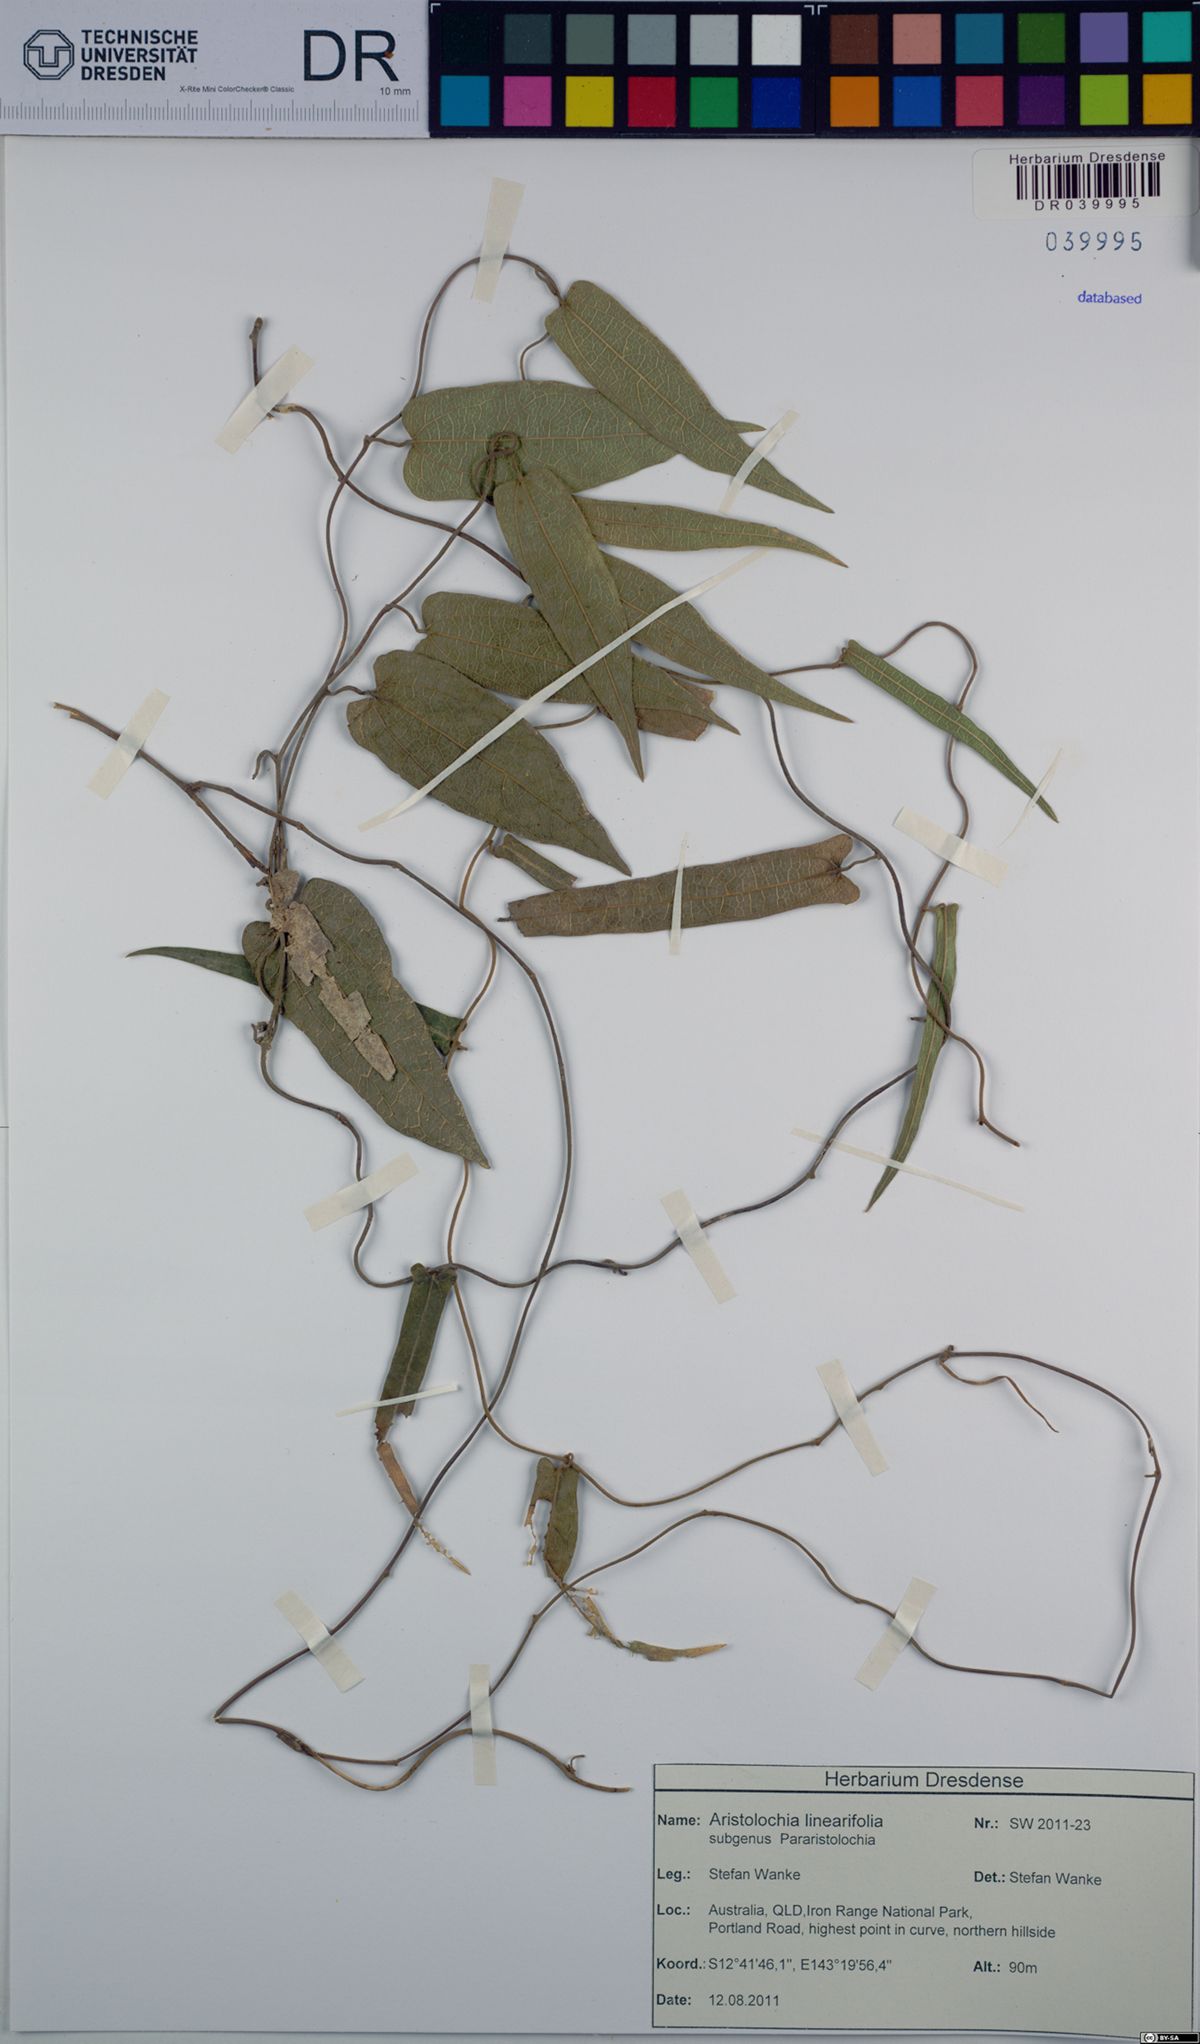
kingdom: Plantae
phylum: Tracheophyta
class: Magnoliopsida
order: Piperales
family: Aristolochiaceae
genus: Aristolochia
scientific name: Aristolochia linearifolia
